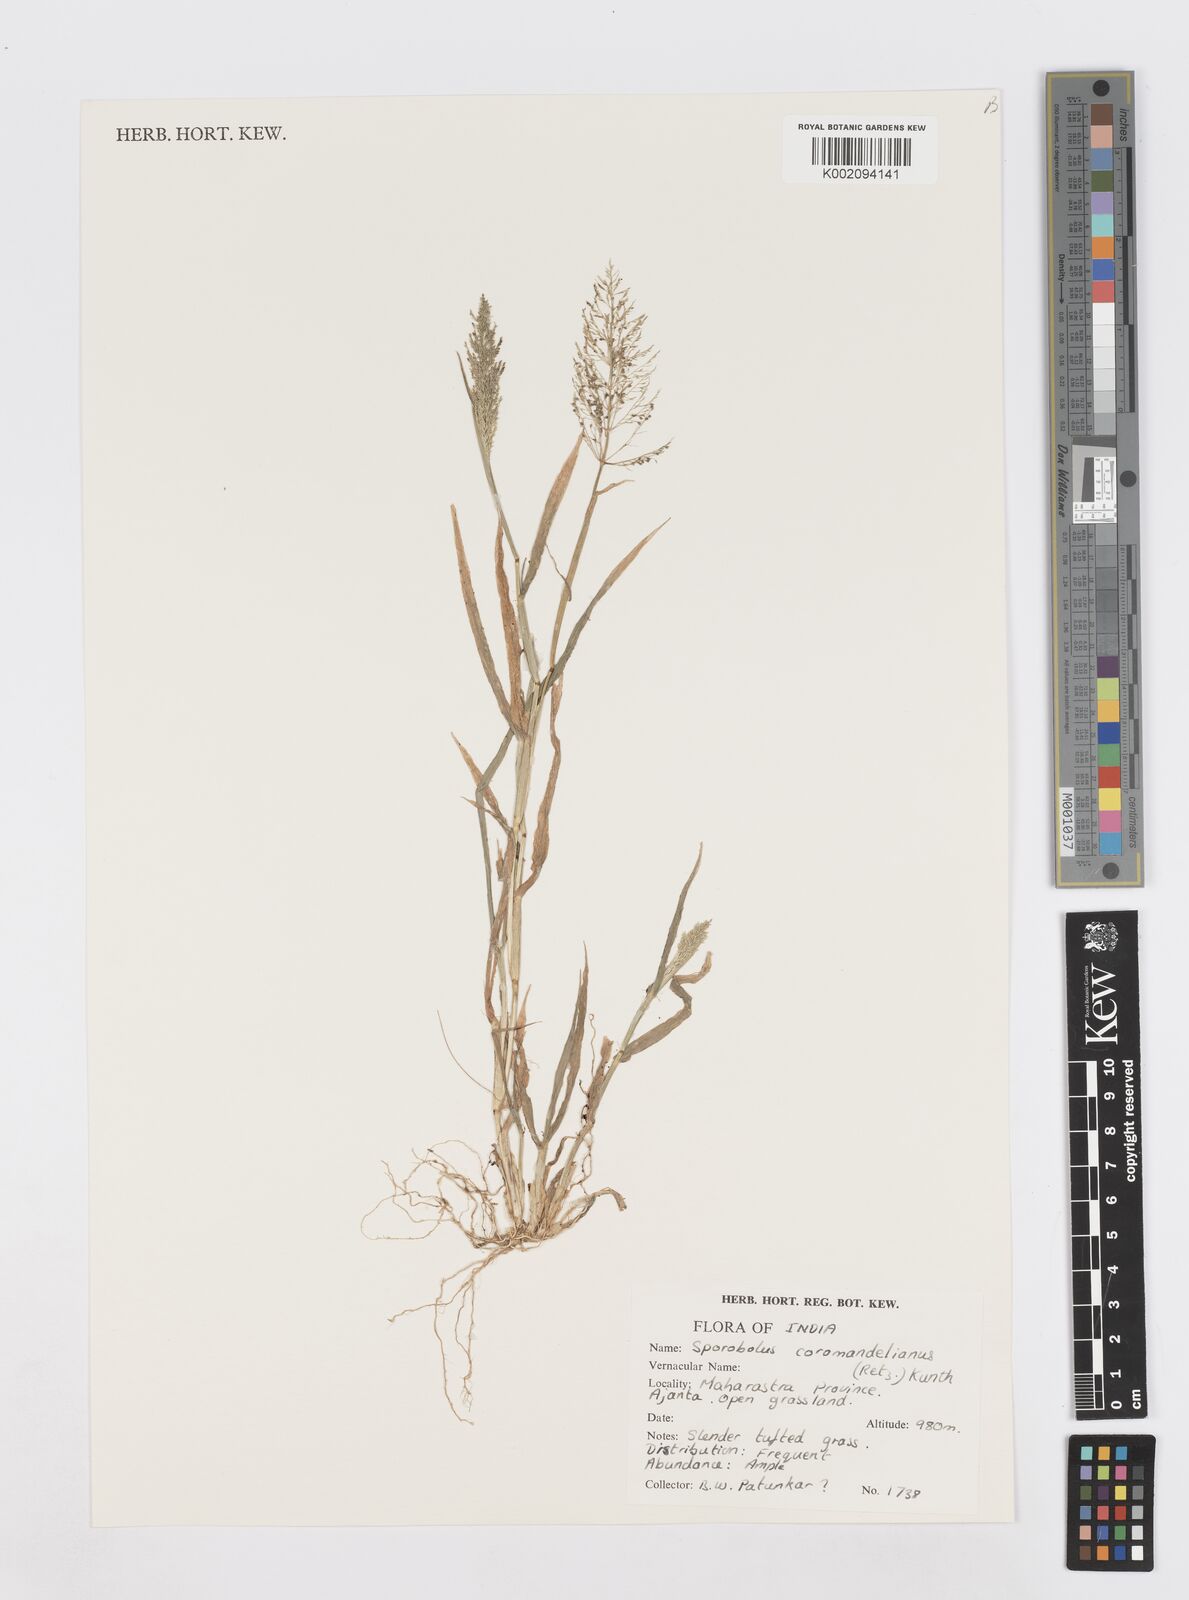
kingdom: Plantae
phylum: Tracheophyta
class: Liliopsida
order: Poales
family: Poaceae
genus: Sporobolus
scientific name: Sporobolus coromandelianus
